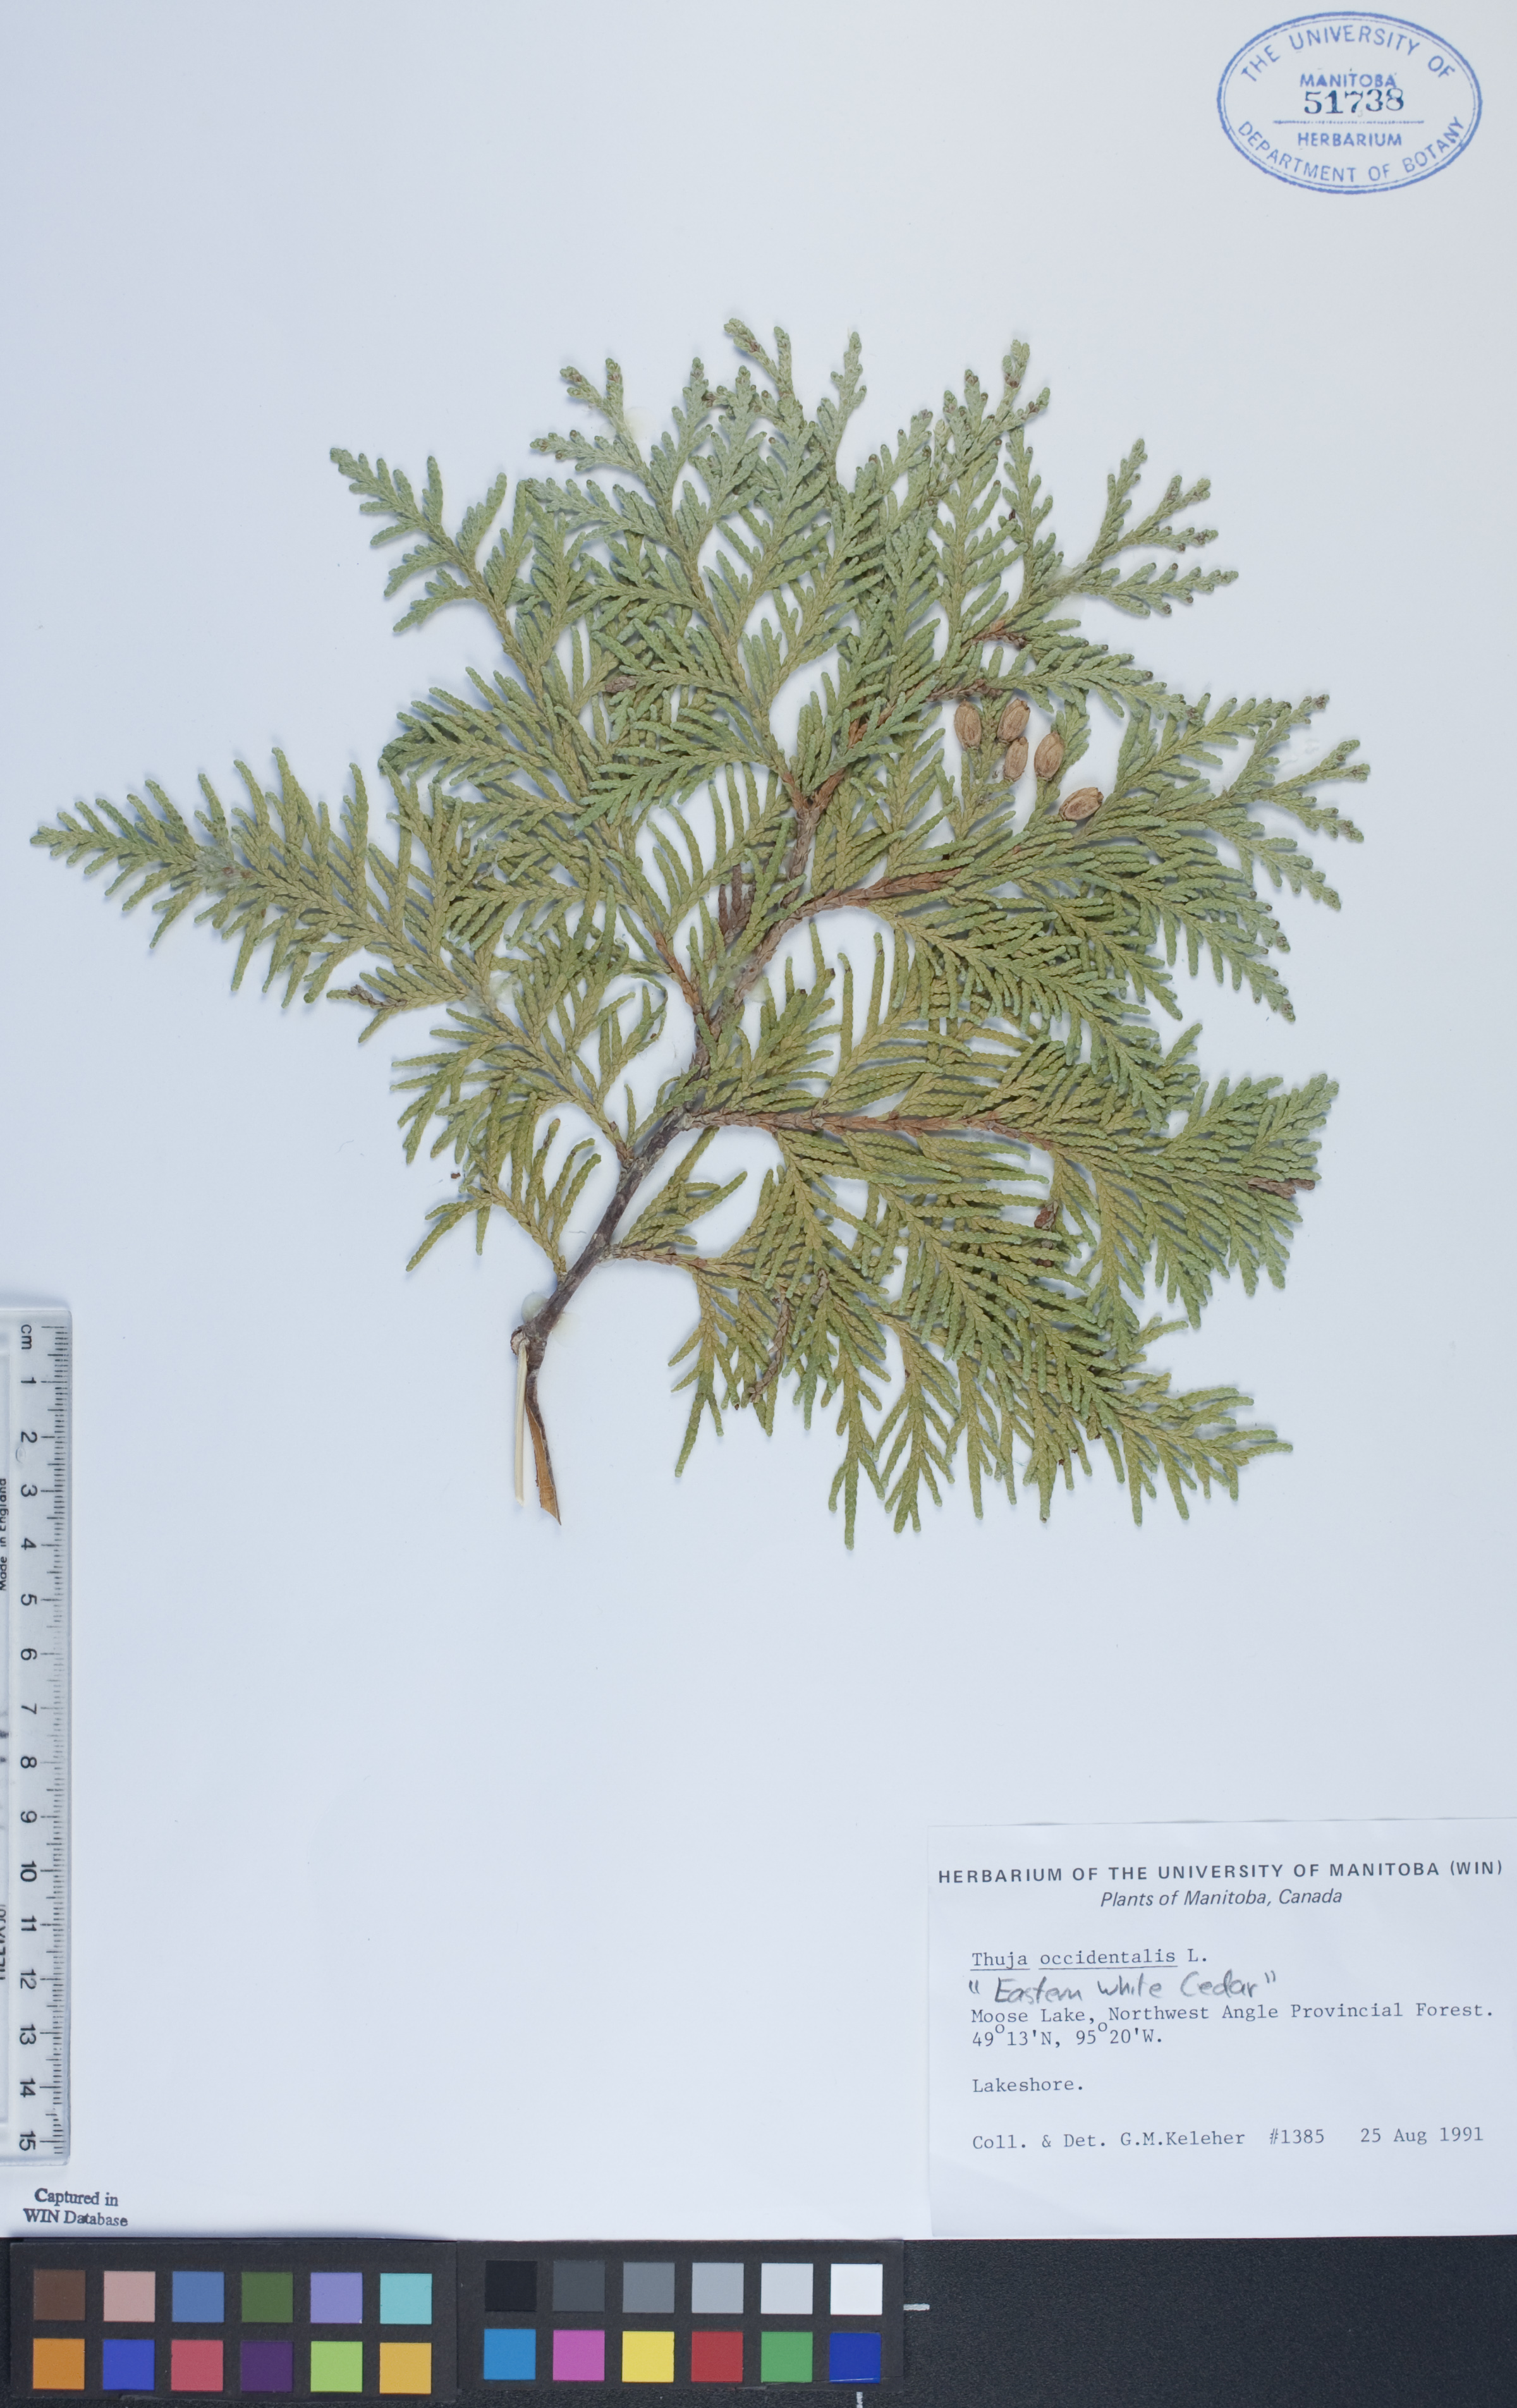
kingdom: Plantae
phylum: Tracheophyta
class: Pinopsida
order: Pinales
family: Cupressaceae
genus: Thuja
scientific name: Thuja occidentalis
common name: Northern white-cedar
